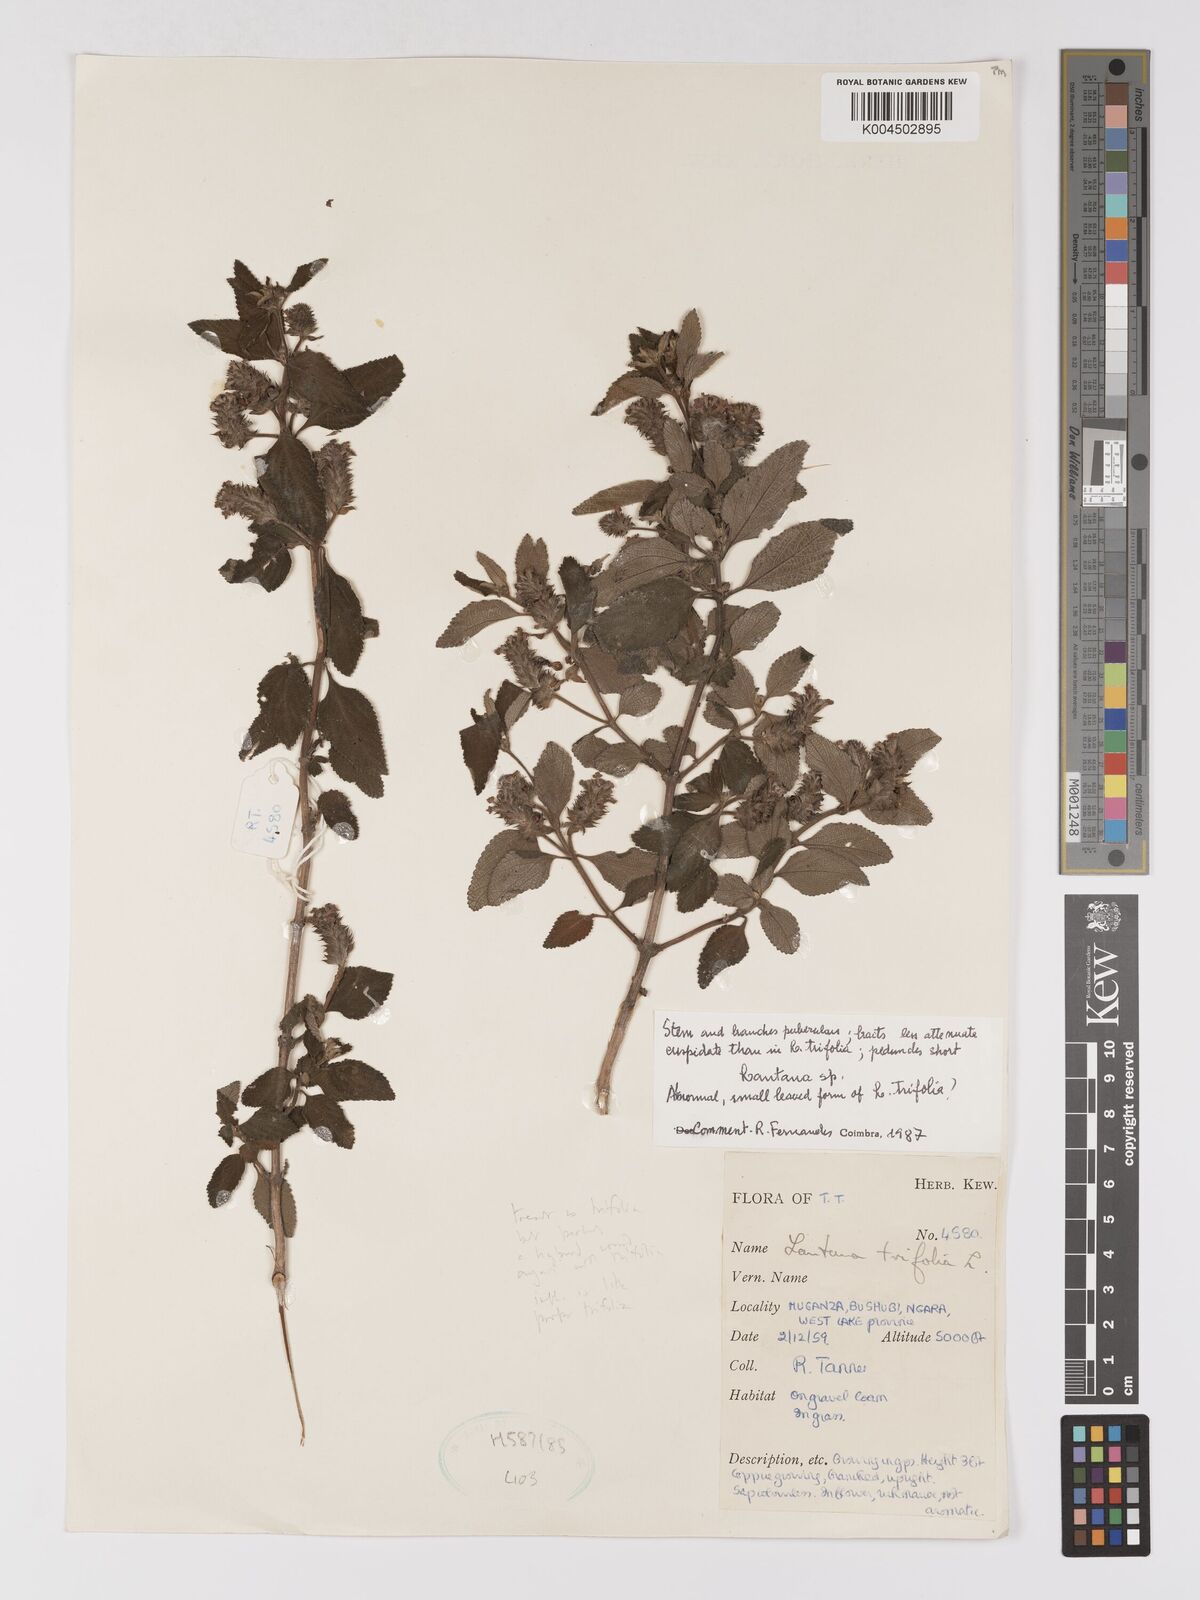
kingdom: Plantae
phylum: Tracheophyta
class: Magnoliopsida
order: Lamiales
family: Verbenaceae
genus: Lantana
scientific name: Lantana trifolia
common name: Sweet-sage
